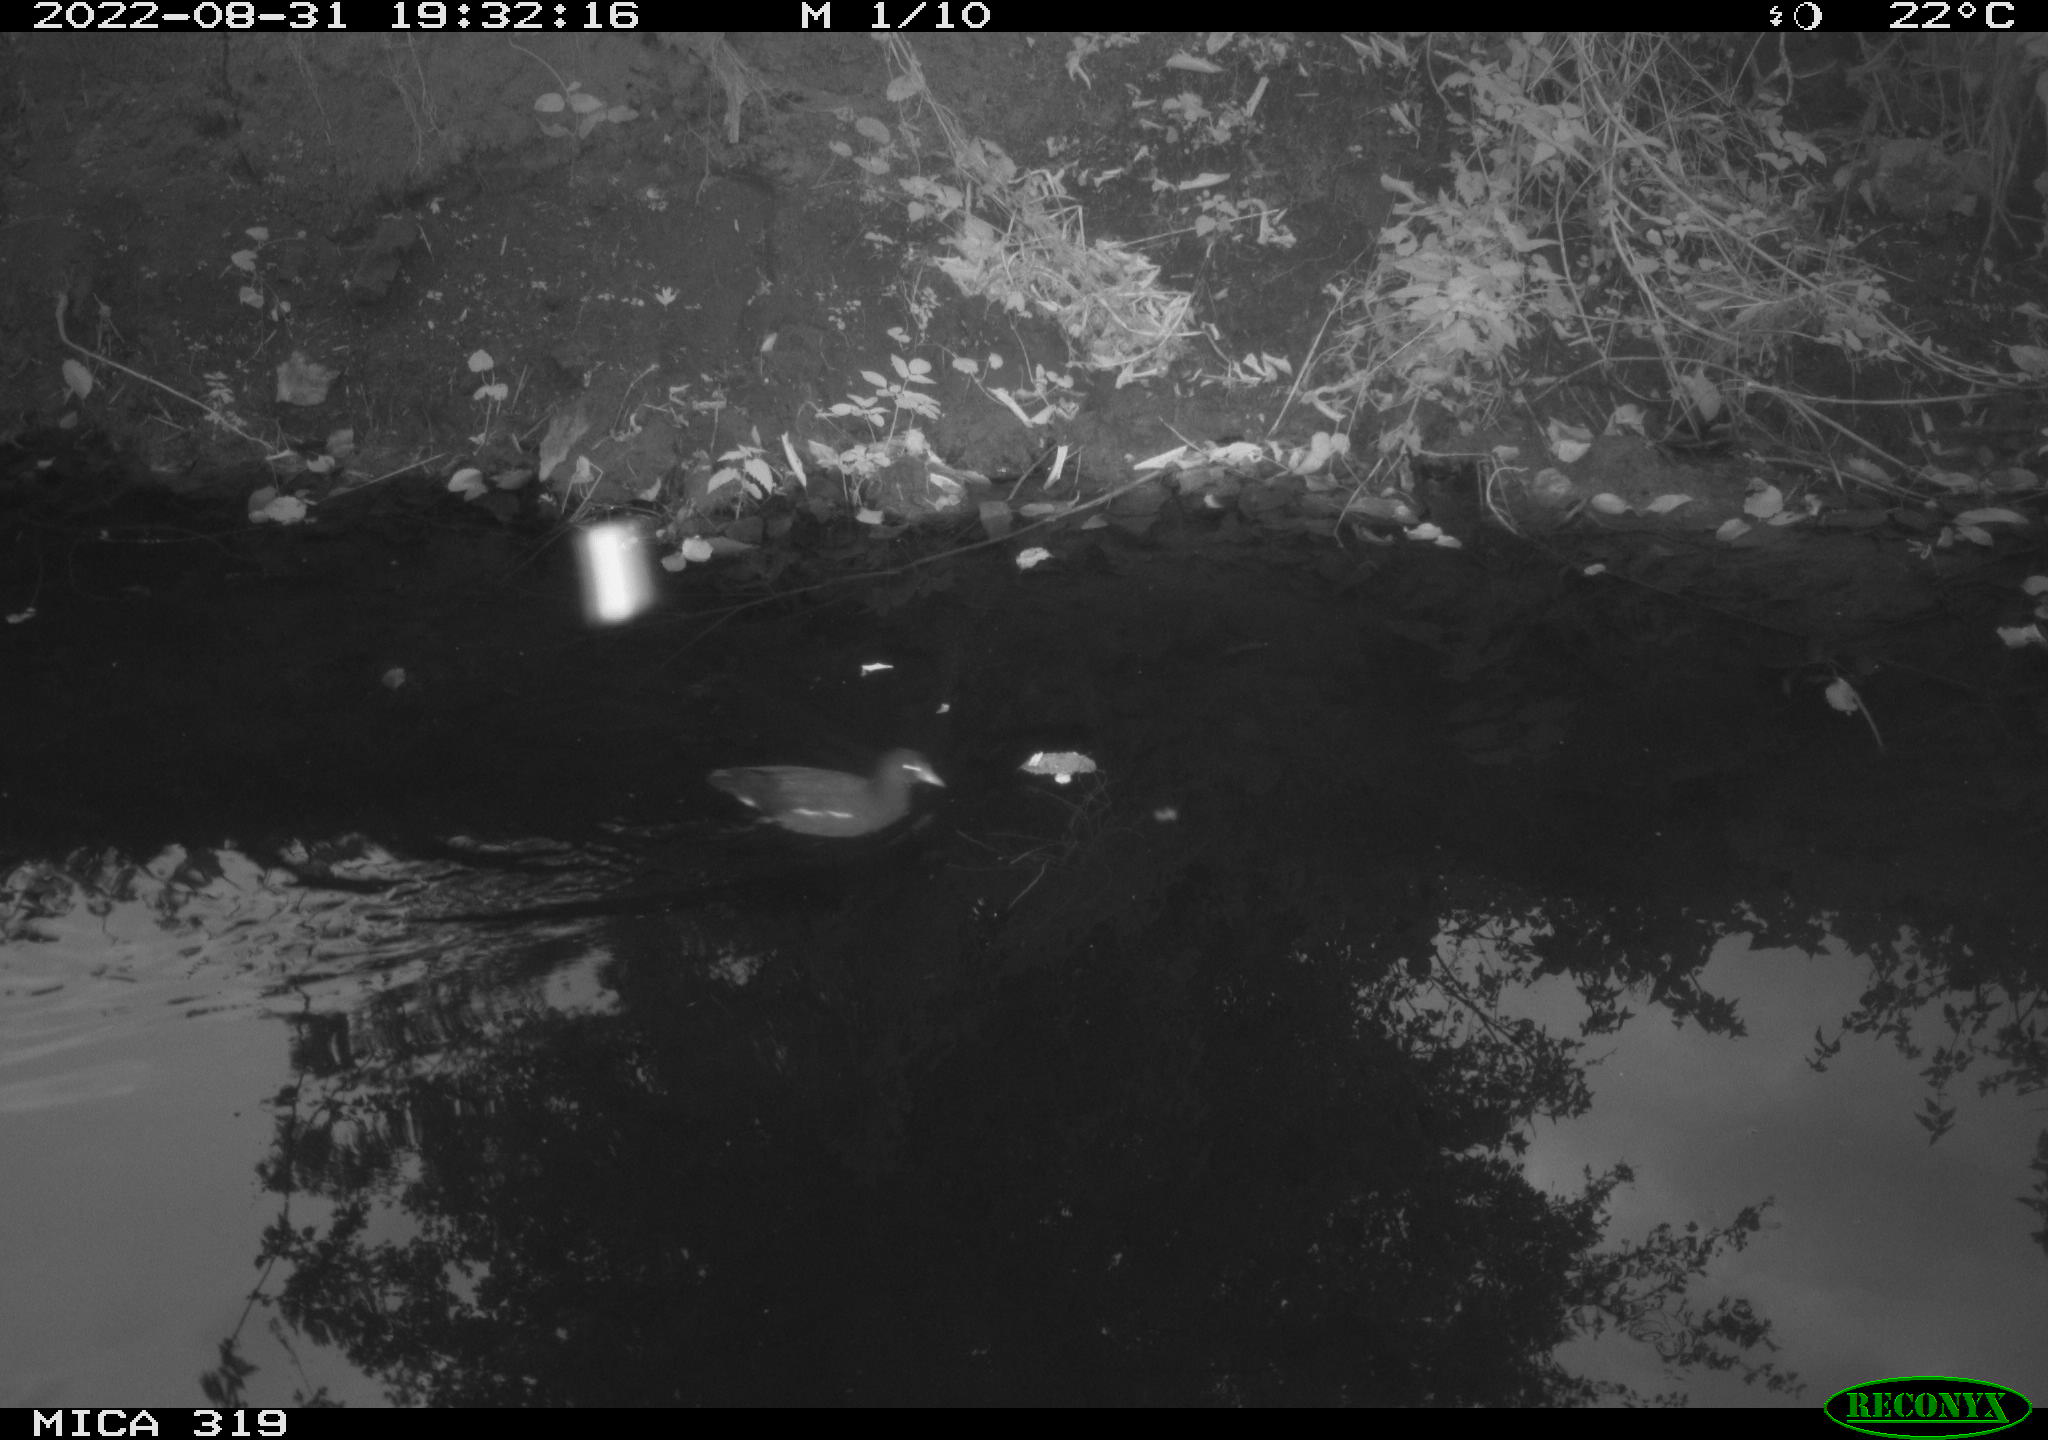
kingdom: Animalia
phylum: Chordata
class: Aves
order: Gruiformes
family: Rallidae
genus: Gallinula
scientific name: Gallinula chloropus
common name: Common moorhen
